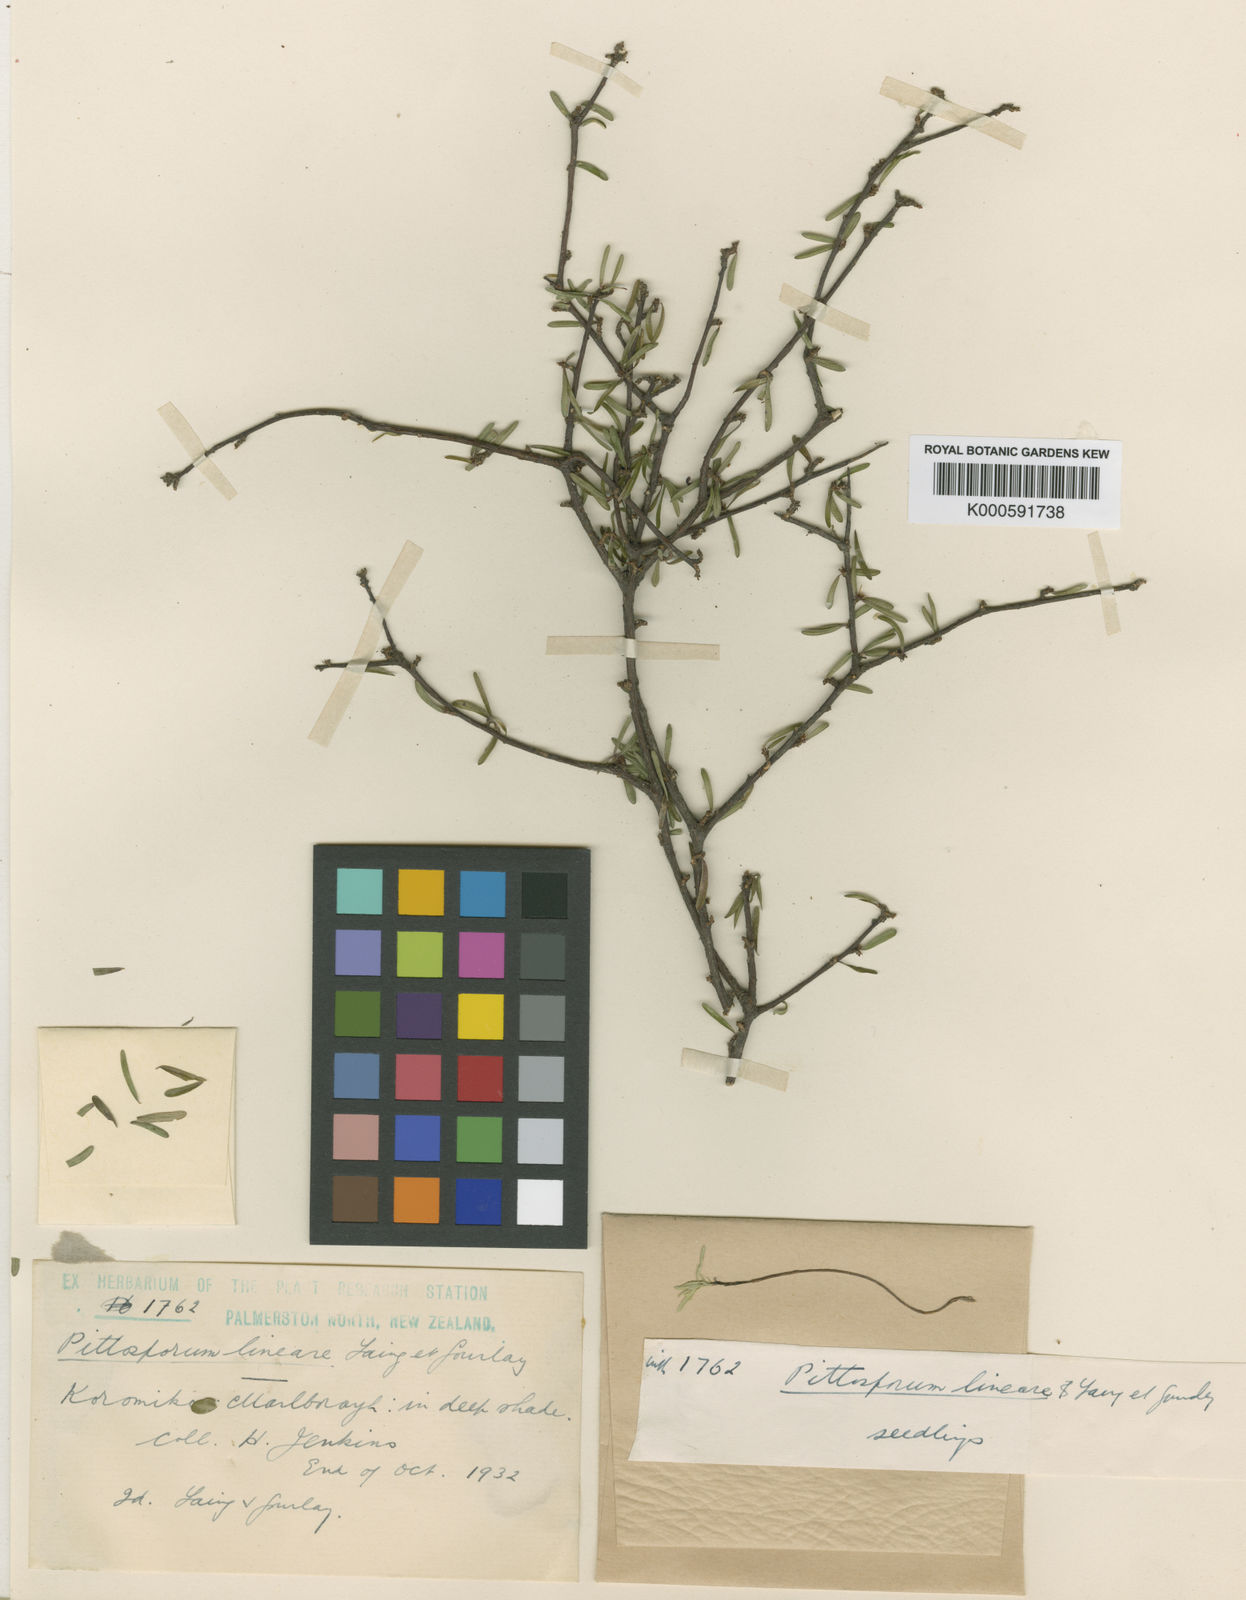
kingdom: Plantae
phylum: Tracheophyta
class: Magnoliopsida
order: Apiales
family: Pittosporaceae
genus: Pittosporum
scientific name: Pittosporum lineare
